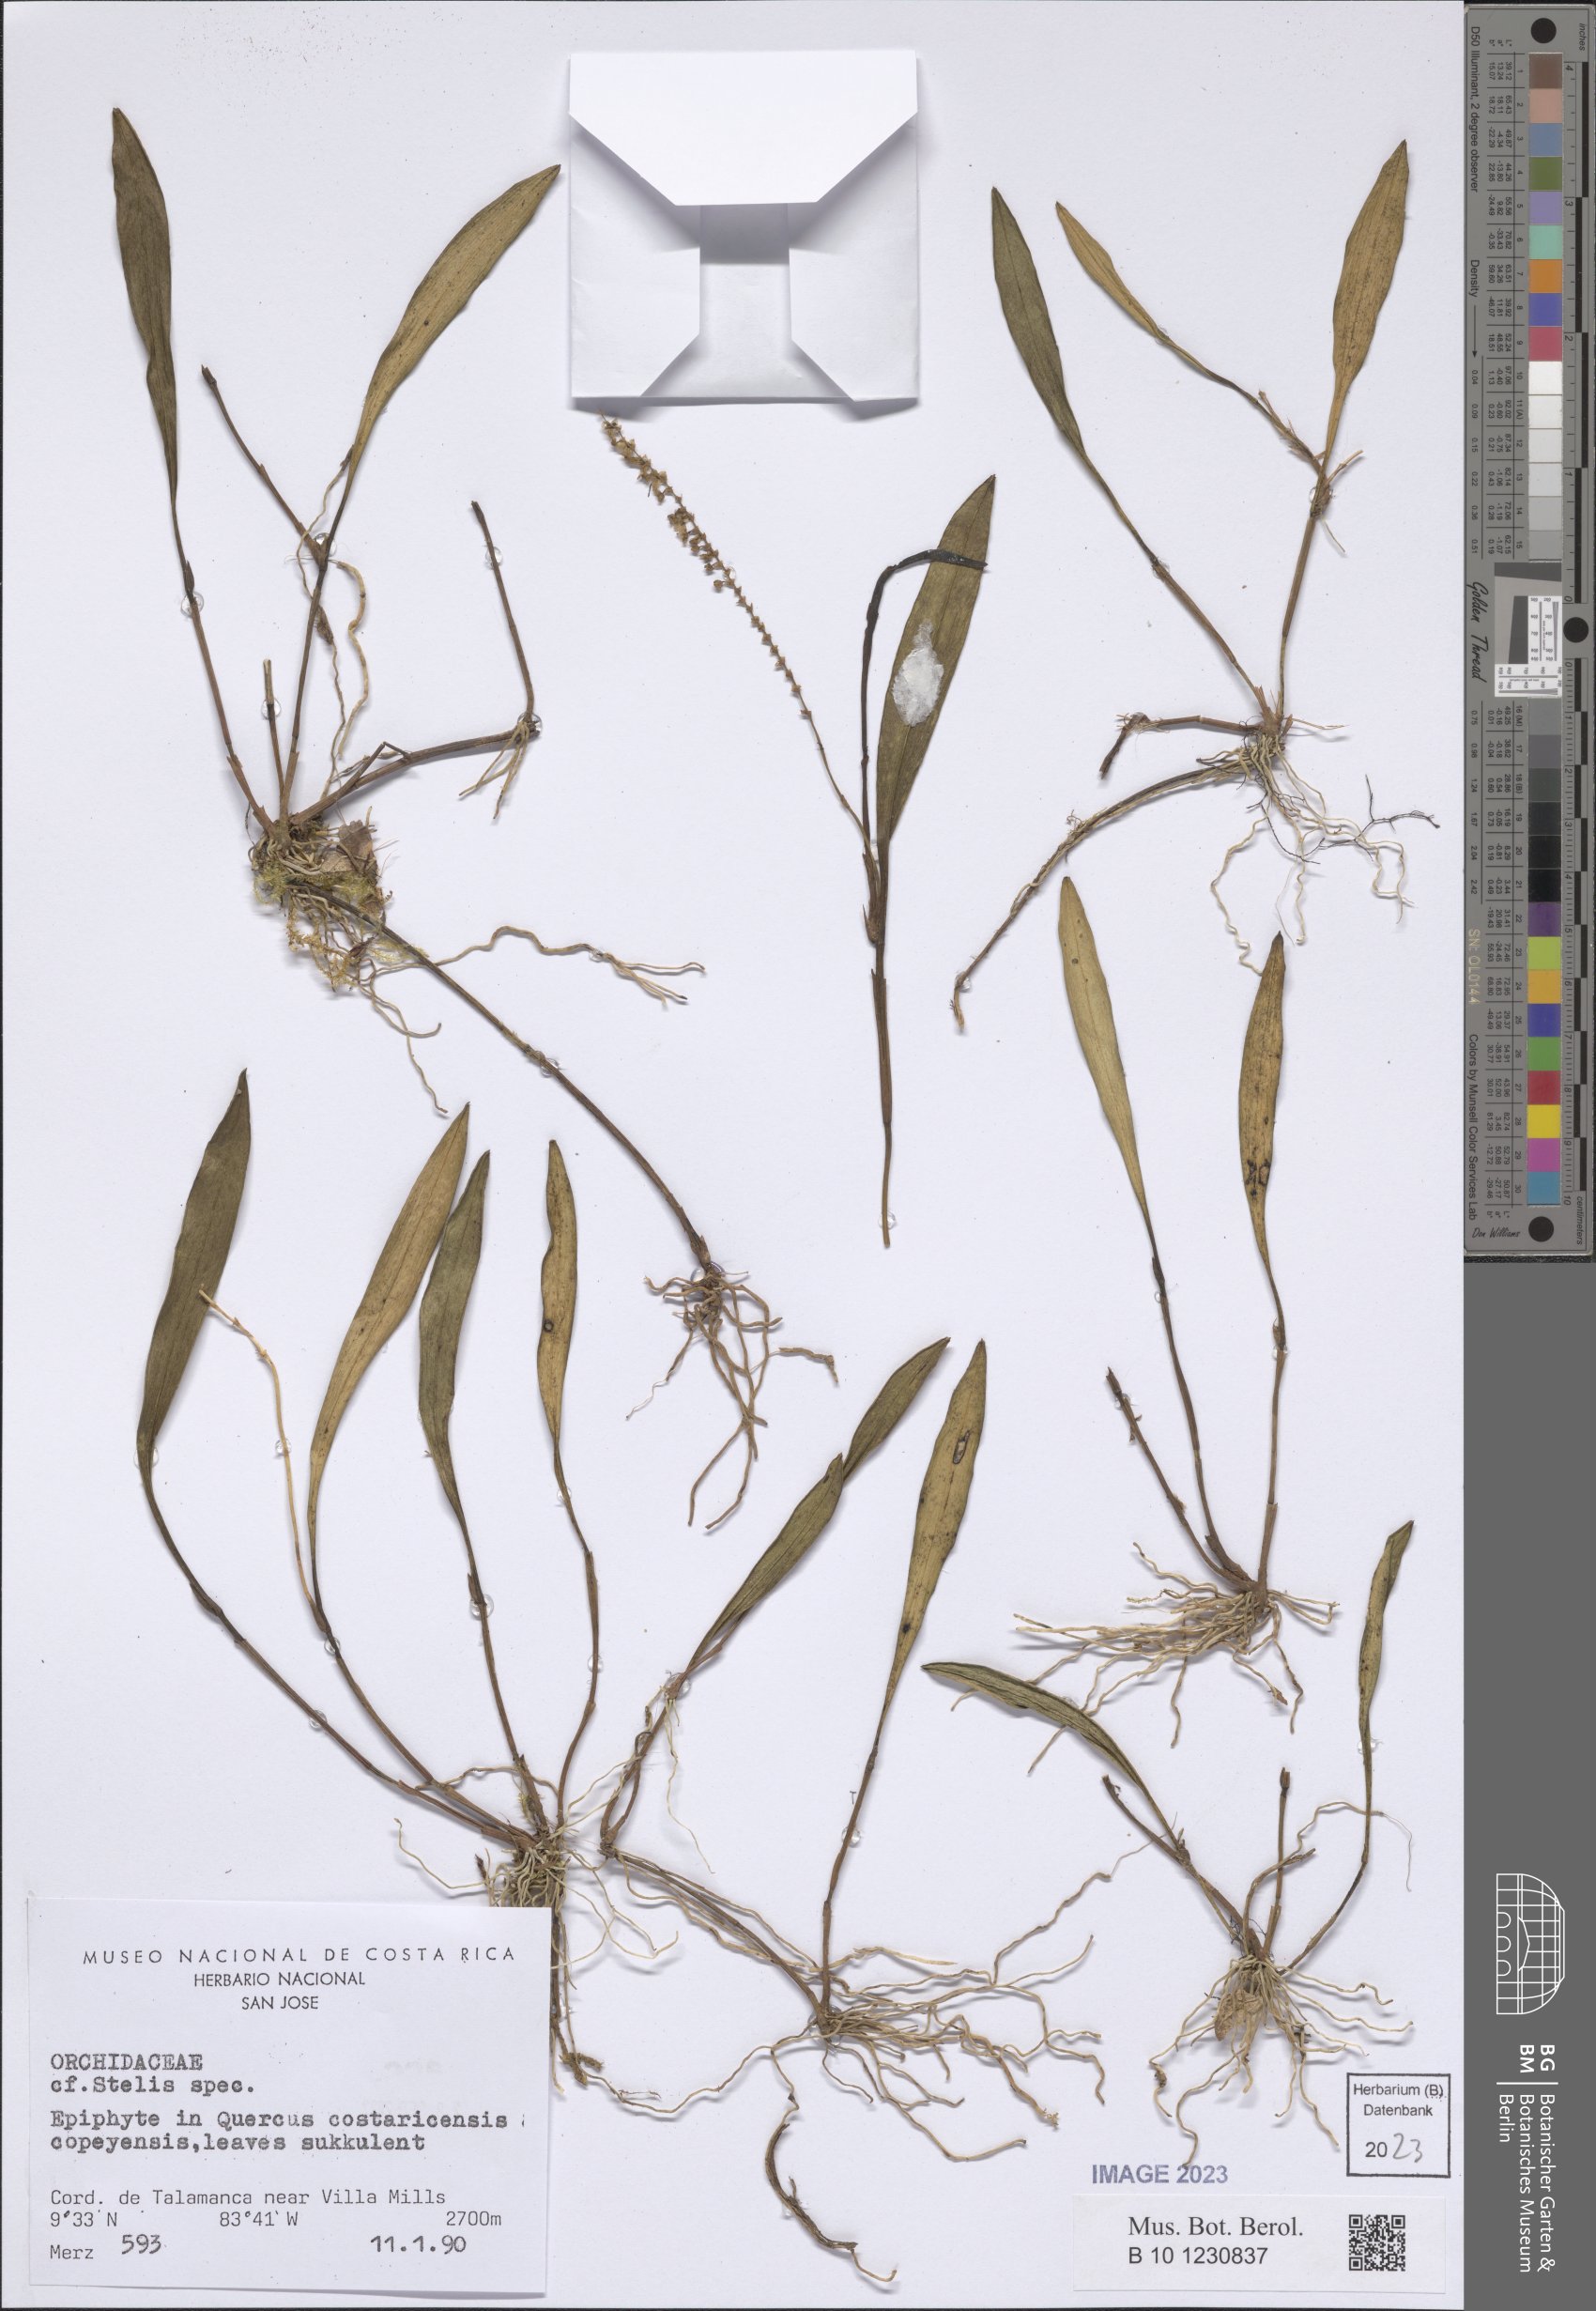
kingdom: Plantae
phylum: Tracheophyta
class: Liliopsida
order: Asparagales
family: Orchidaceae
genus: Stelis
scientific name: Stelis
